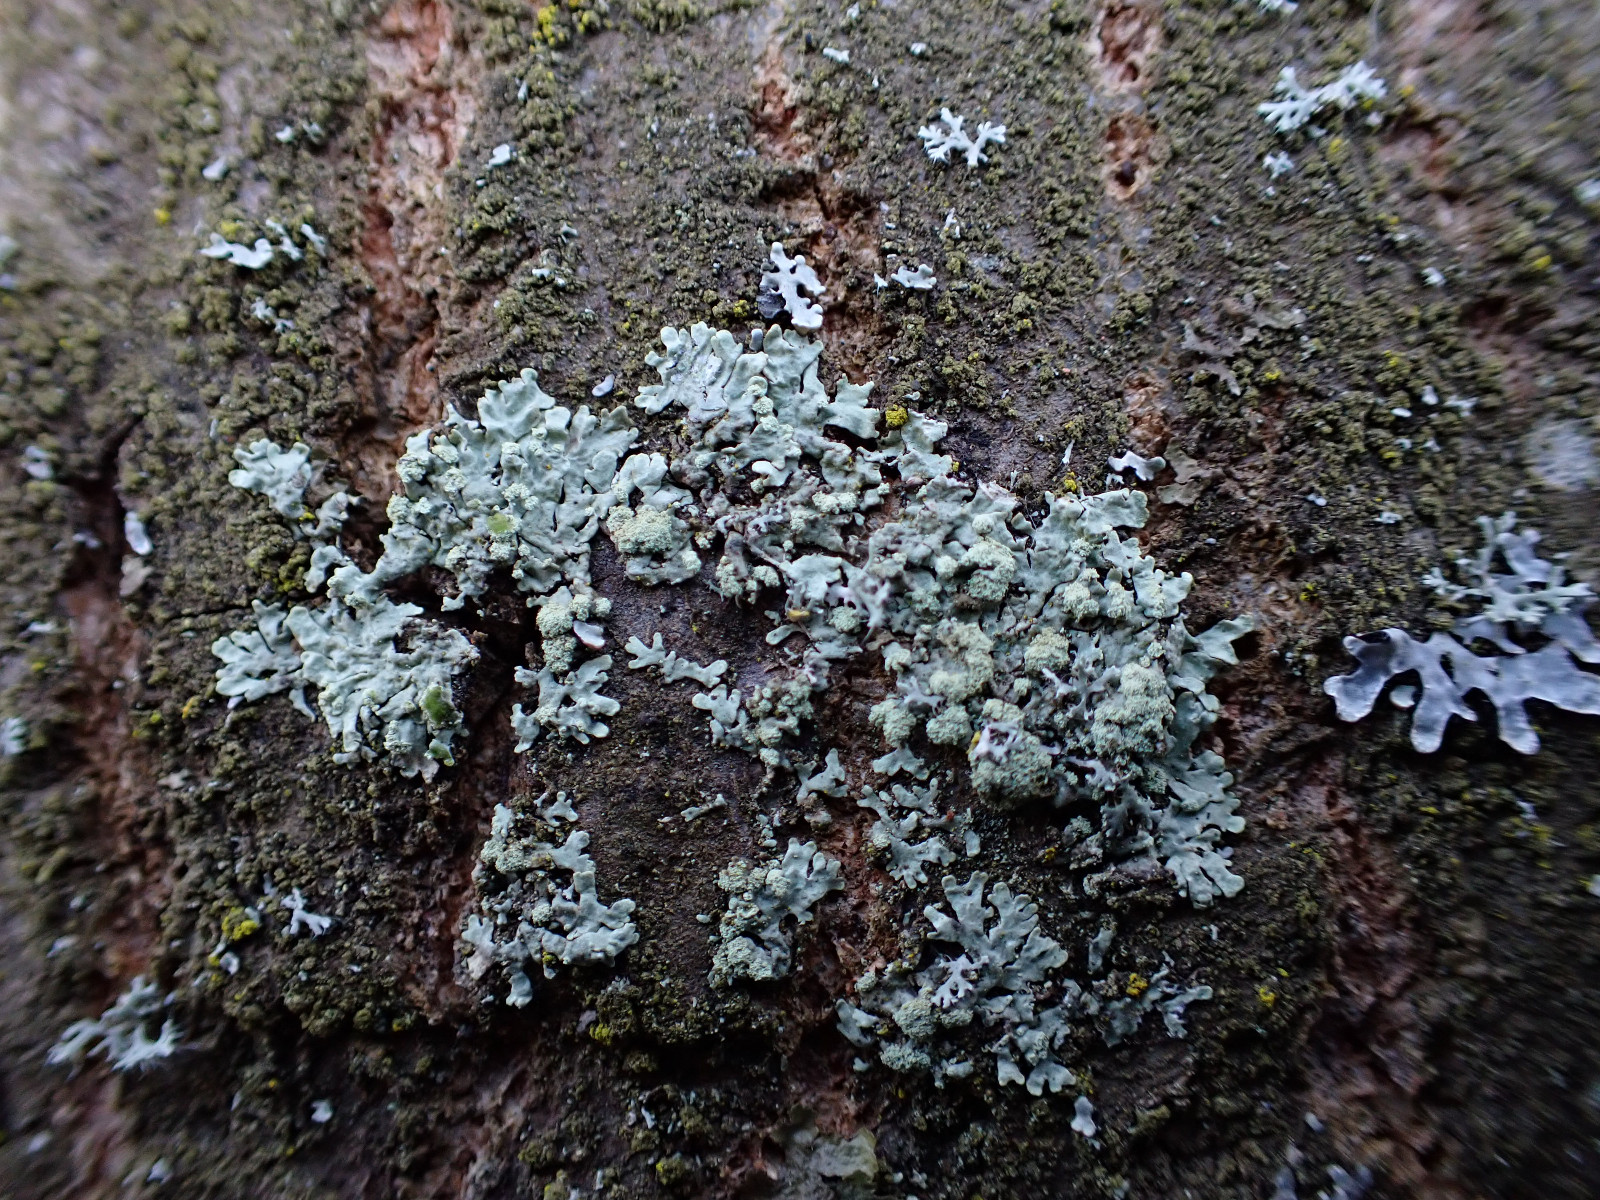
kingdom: Fungi
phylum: Ascomycota
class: Lecanoromycetes
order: Lecanorales
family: Parmeliaceae
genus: Parmeliopsis
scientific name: Parmeliopsis ambigua
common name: gul stolpelav
